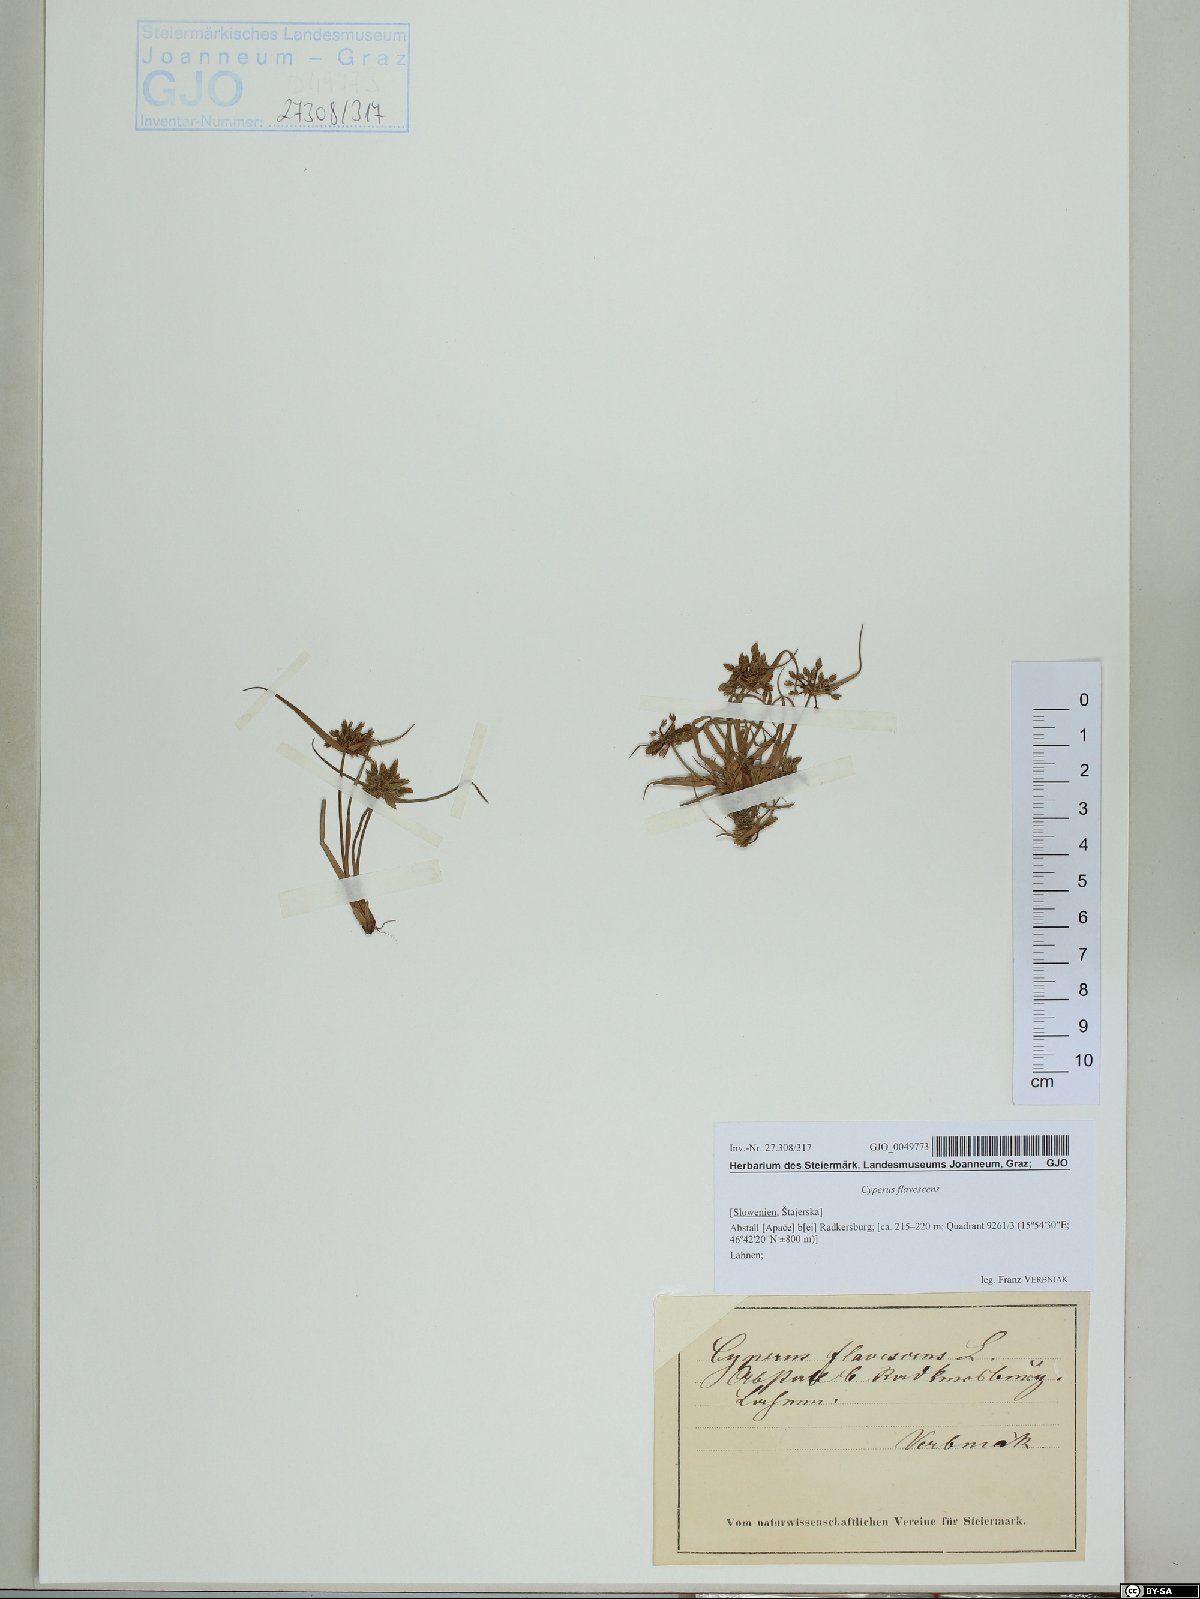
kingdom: Plantae
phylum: Tracheophyta
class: Liliopsida
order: Poales
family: Cyperaceae
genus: Cyperus
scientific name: Cyperus flavescens
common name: Yellow galingale
